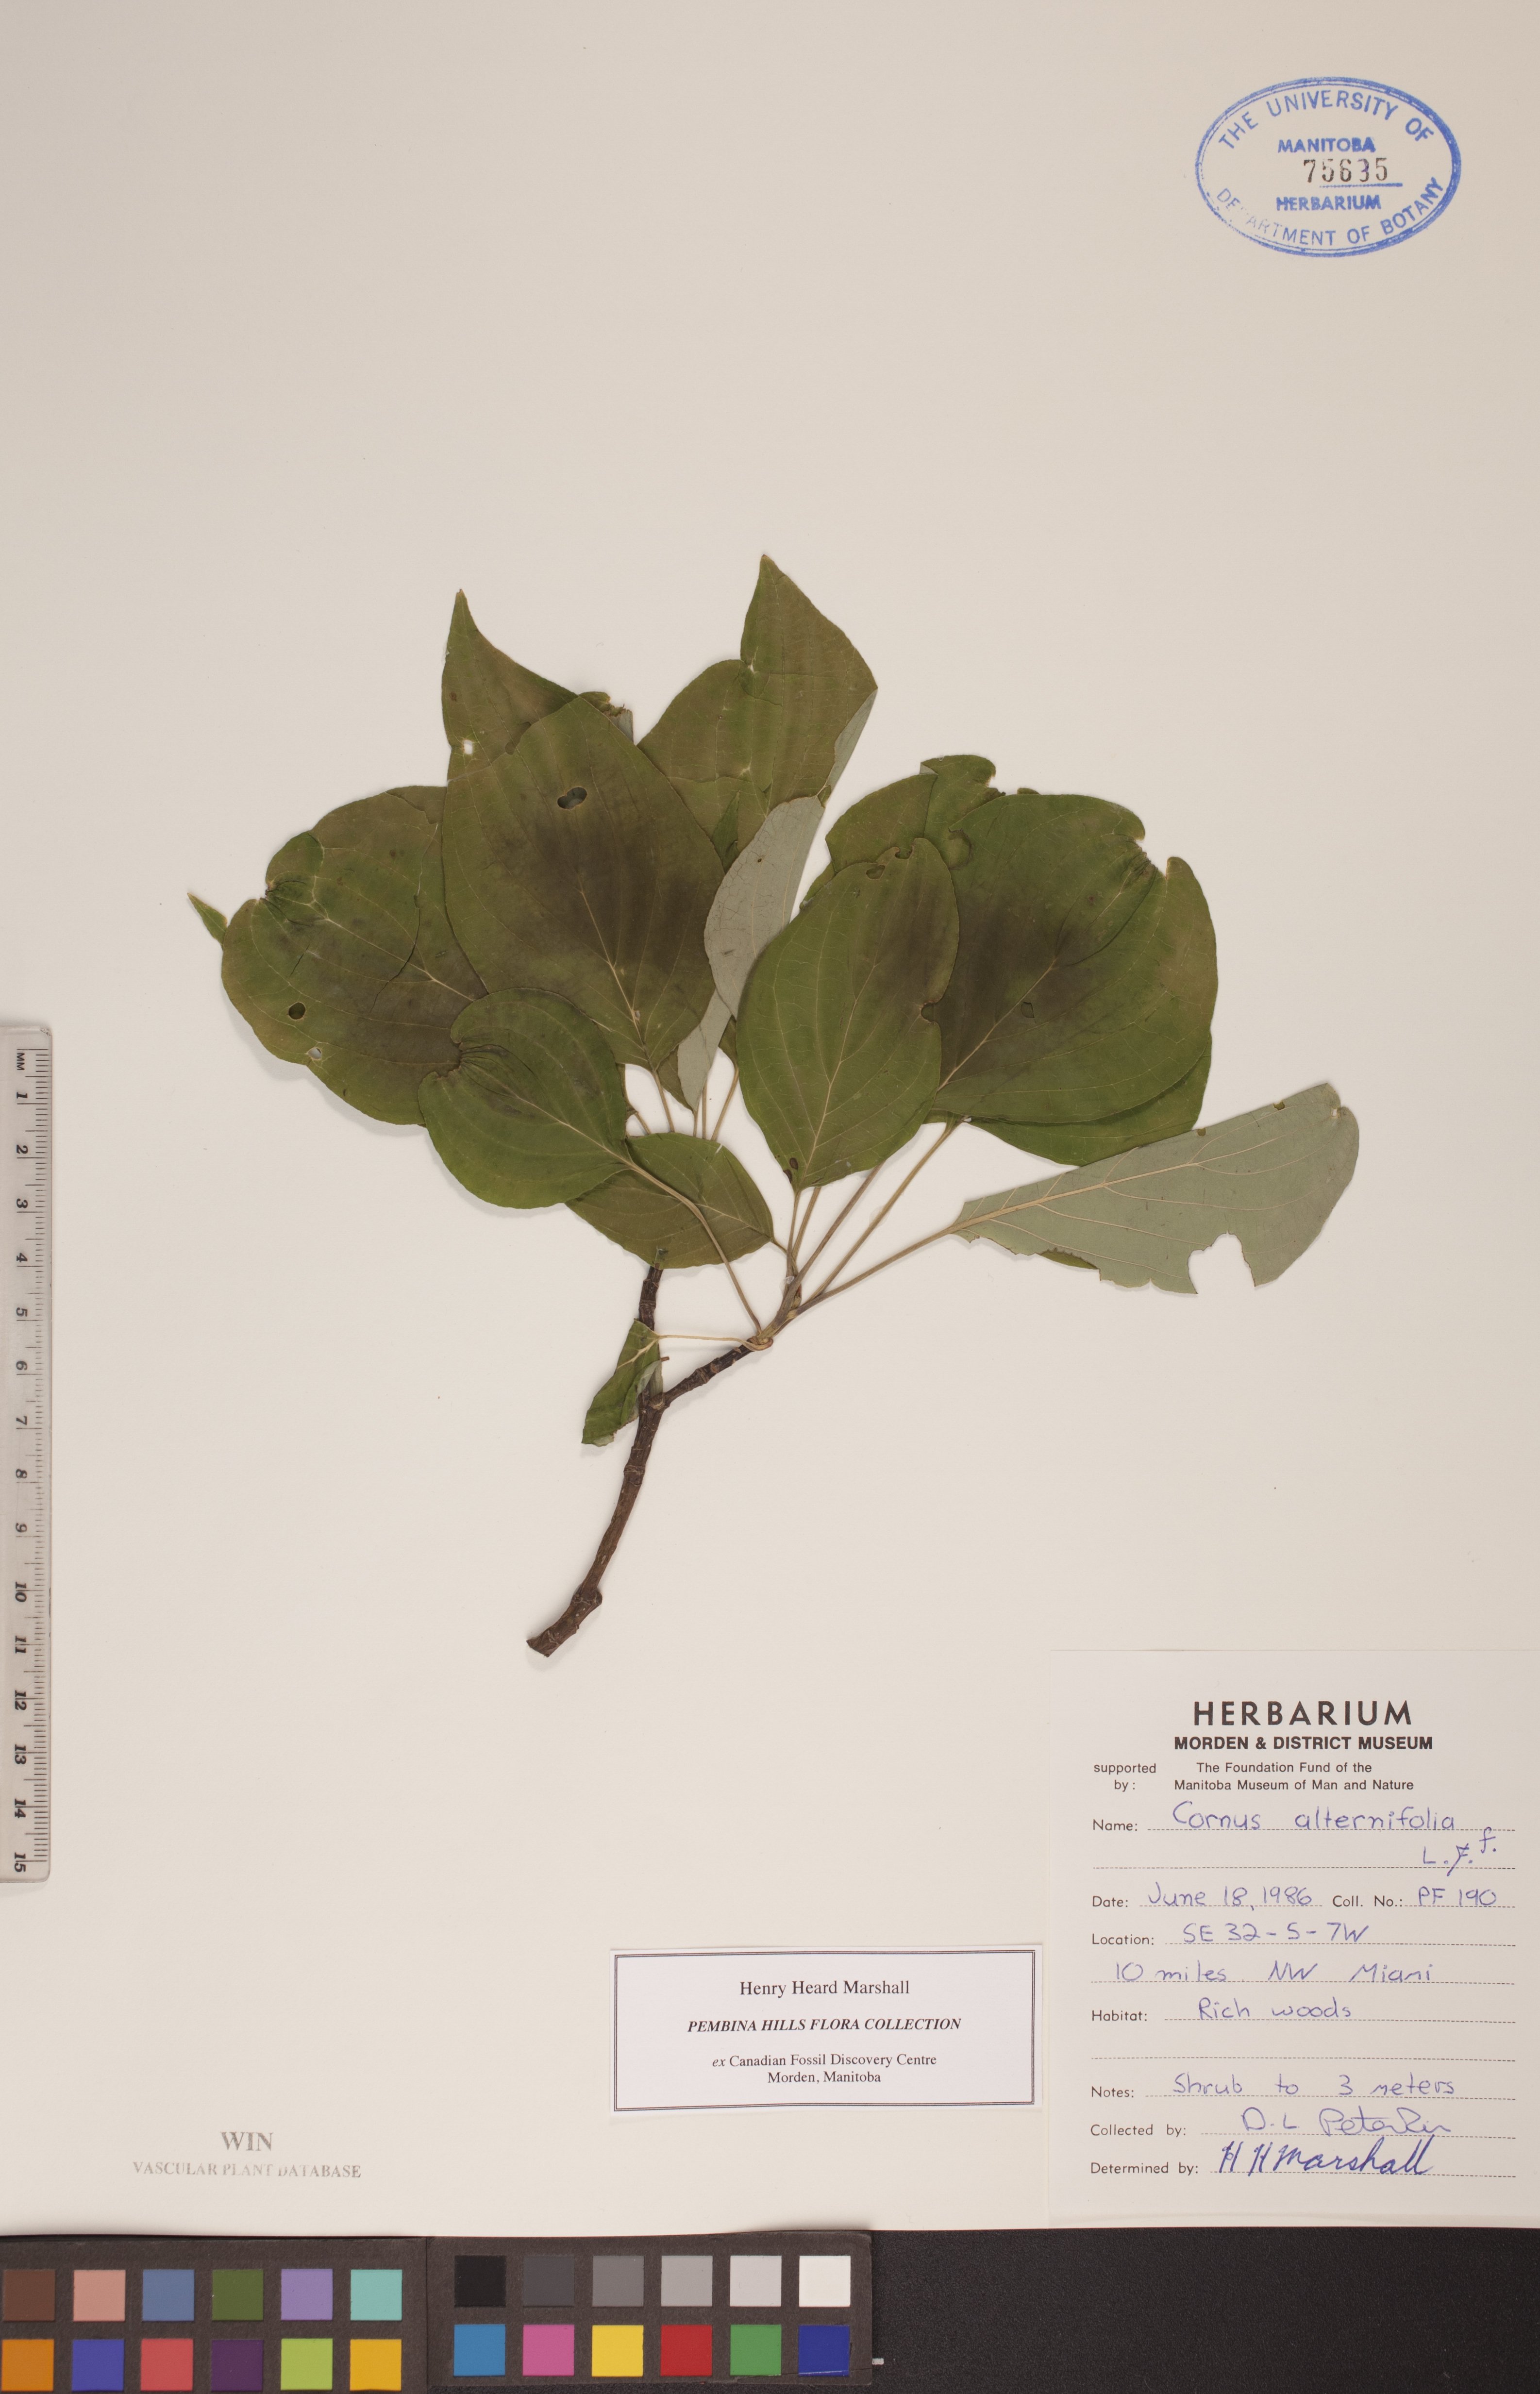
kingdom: Plantae
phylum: Tracheophyta
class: Magnoliopsida
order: Cornales
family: Cornaceae
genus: Cornus
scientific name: Cornus alternifolia
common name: Pagoda dogwood
